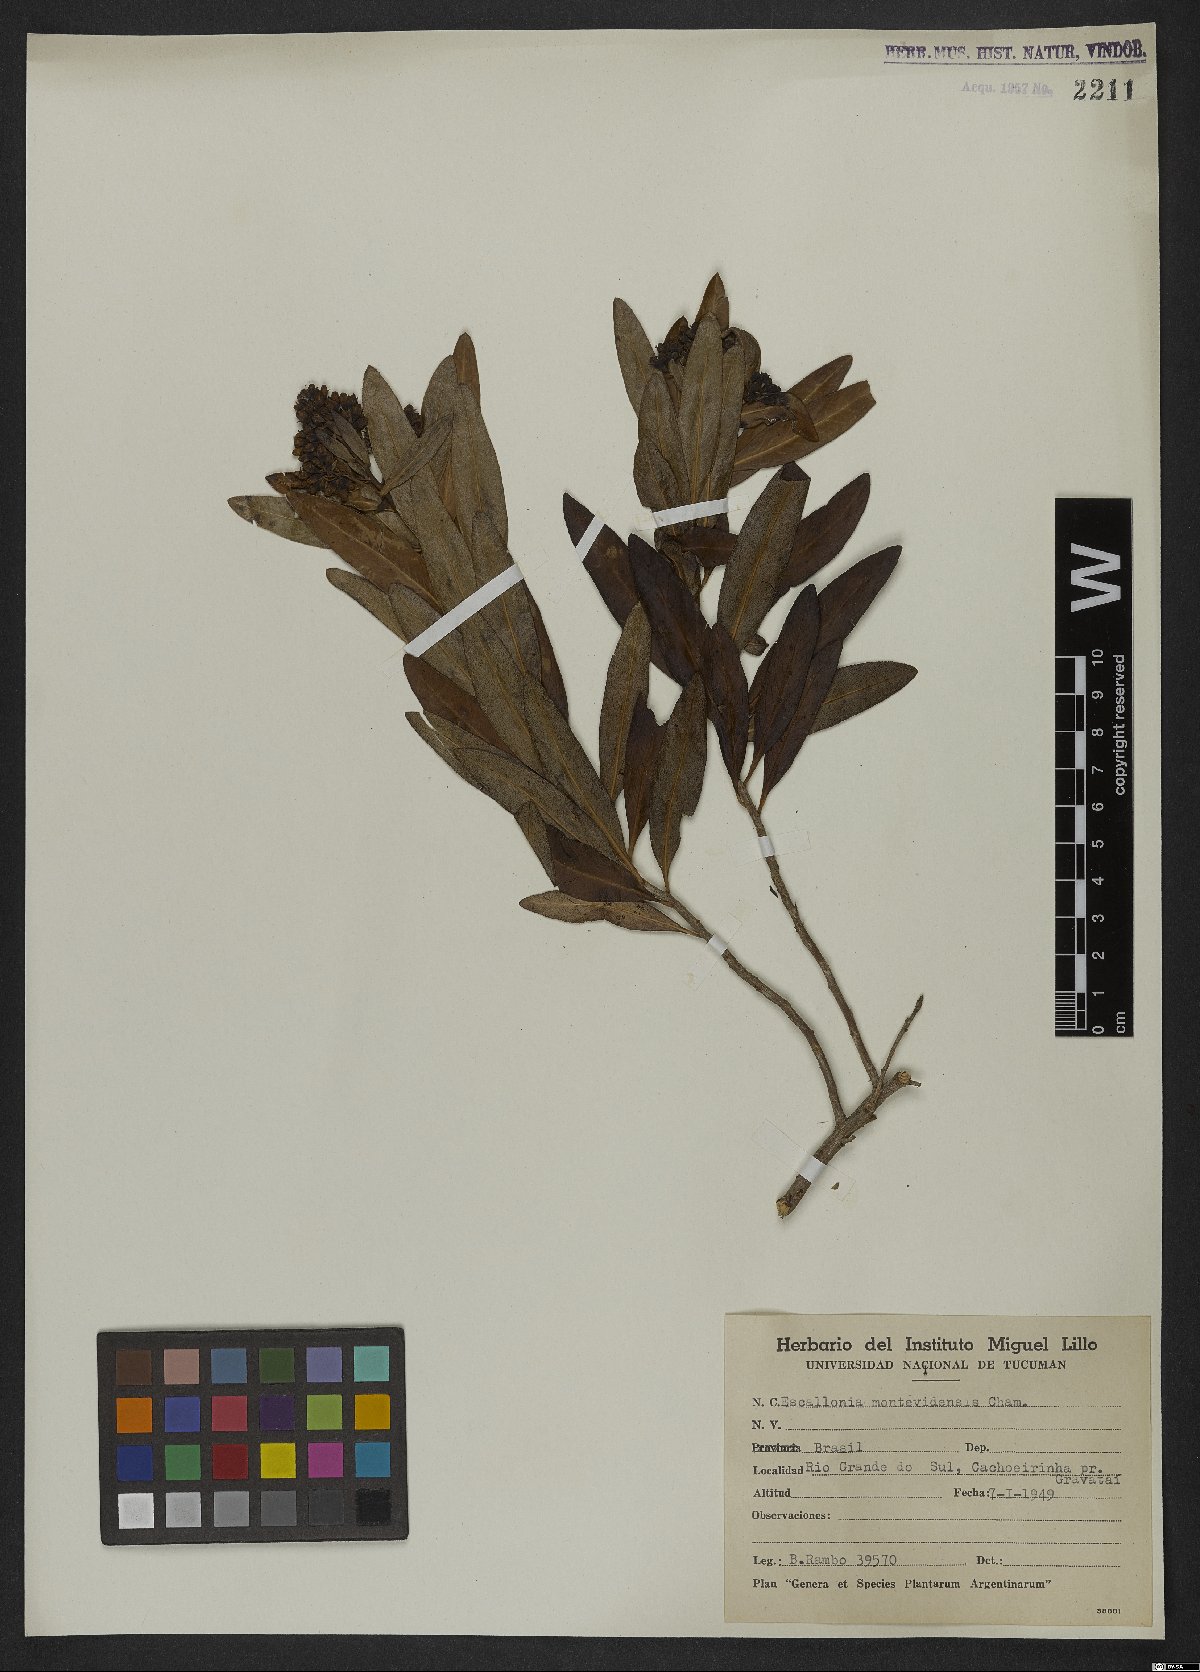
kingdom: Plantae
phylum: Tracheophyta
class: Magnoliopsida
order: Escalloniales
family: Escalloniaceae
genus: Escallonia
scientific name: Escallonia bifida
